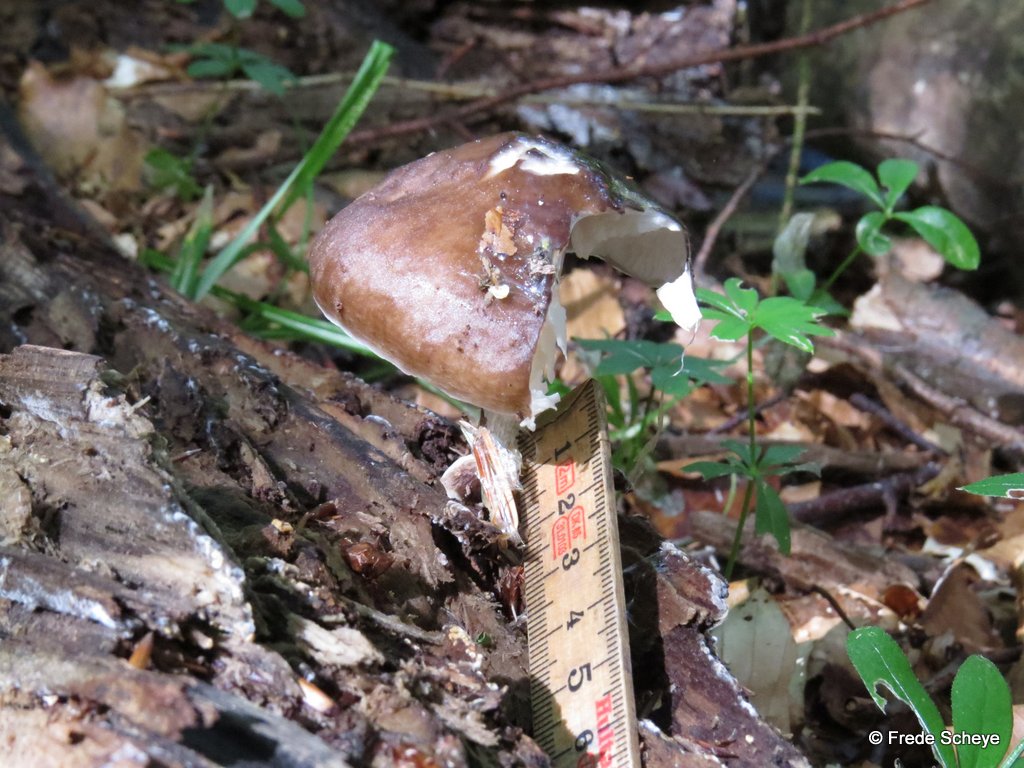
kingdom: Fungi
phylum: Basidiomycota
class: Agaricomycetes
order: Agaricales
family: Pluteaceae
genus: Pluteus
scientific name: Pluteus cervinus
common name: sodfarvet skærmhat
